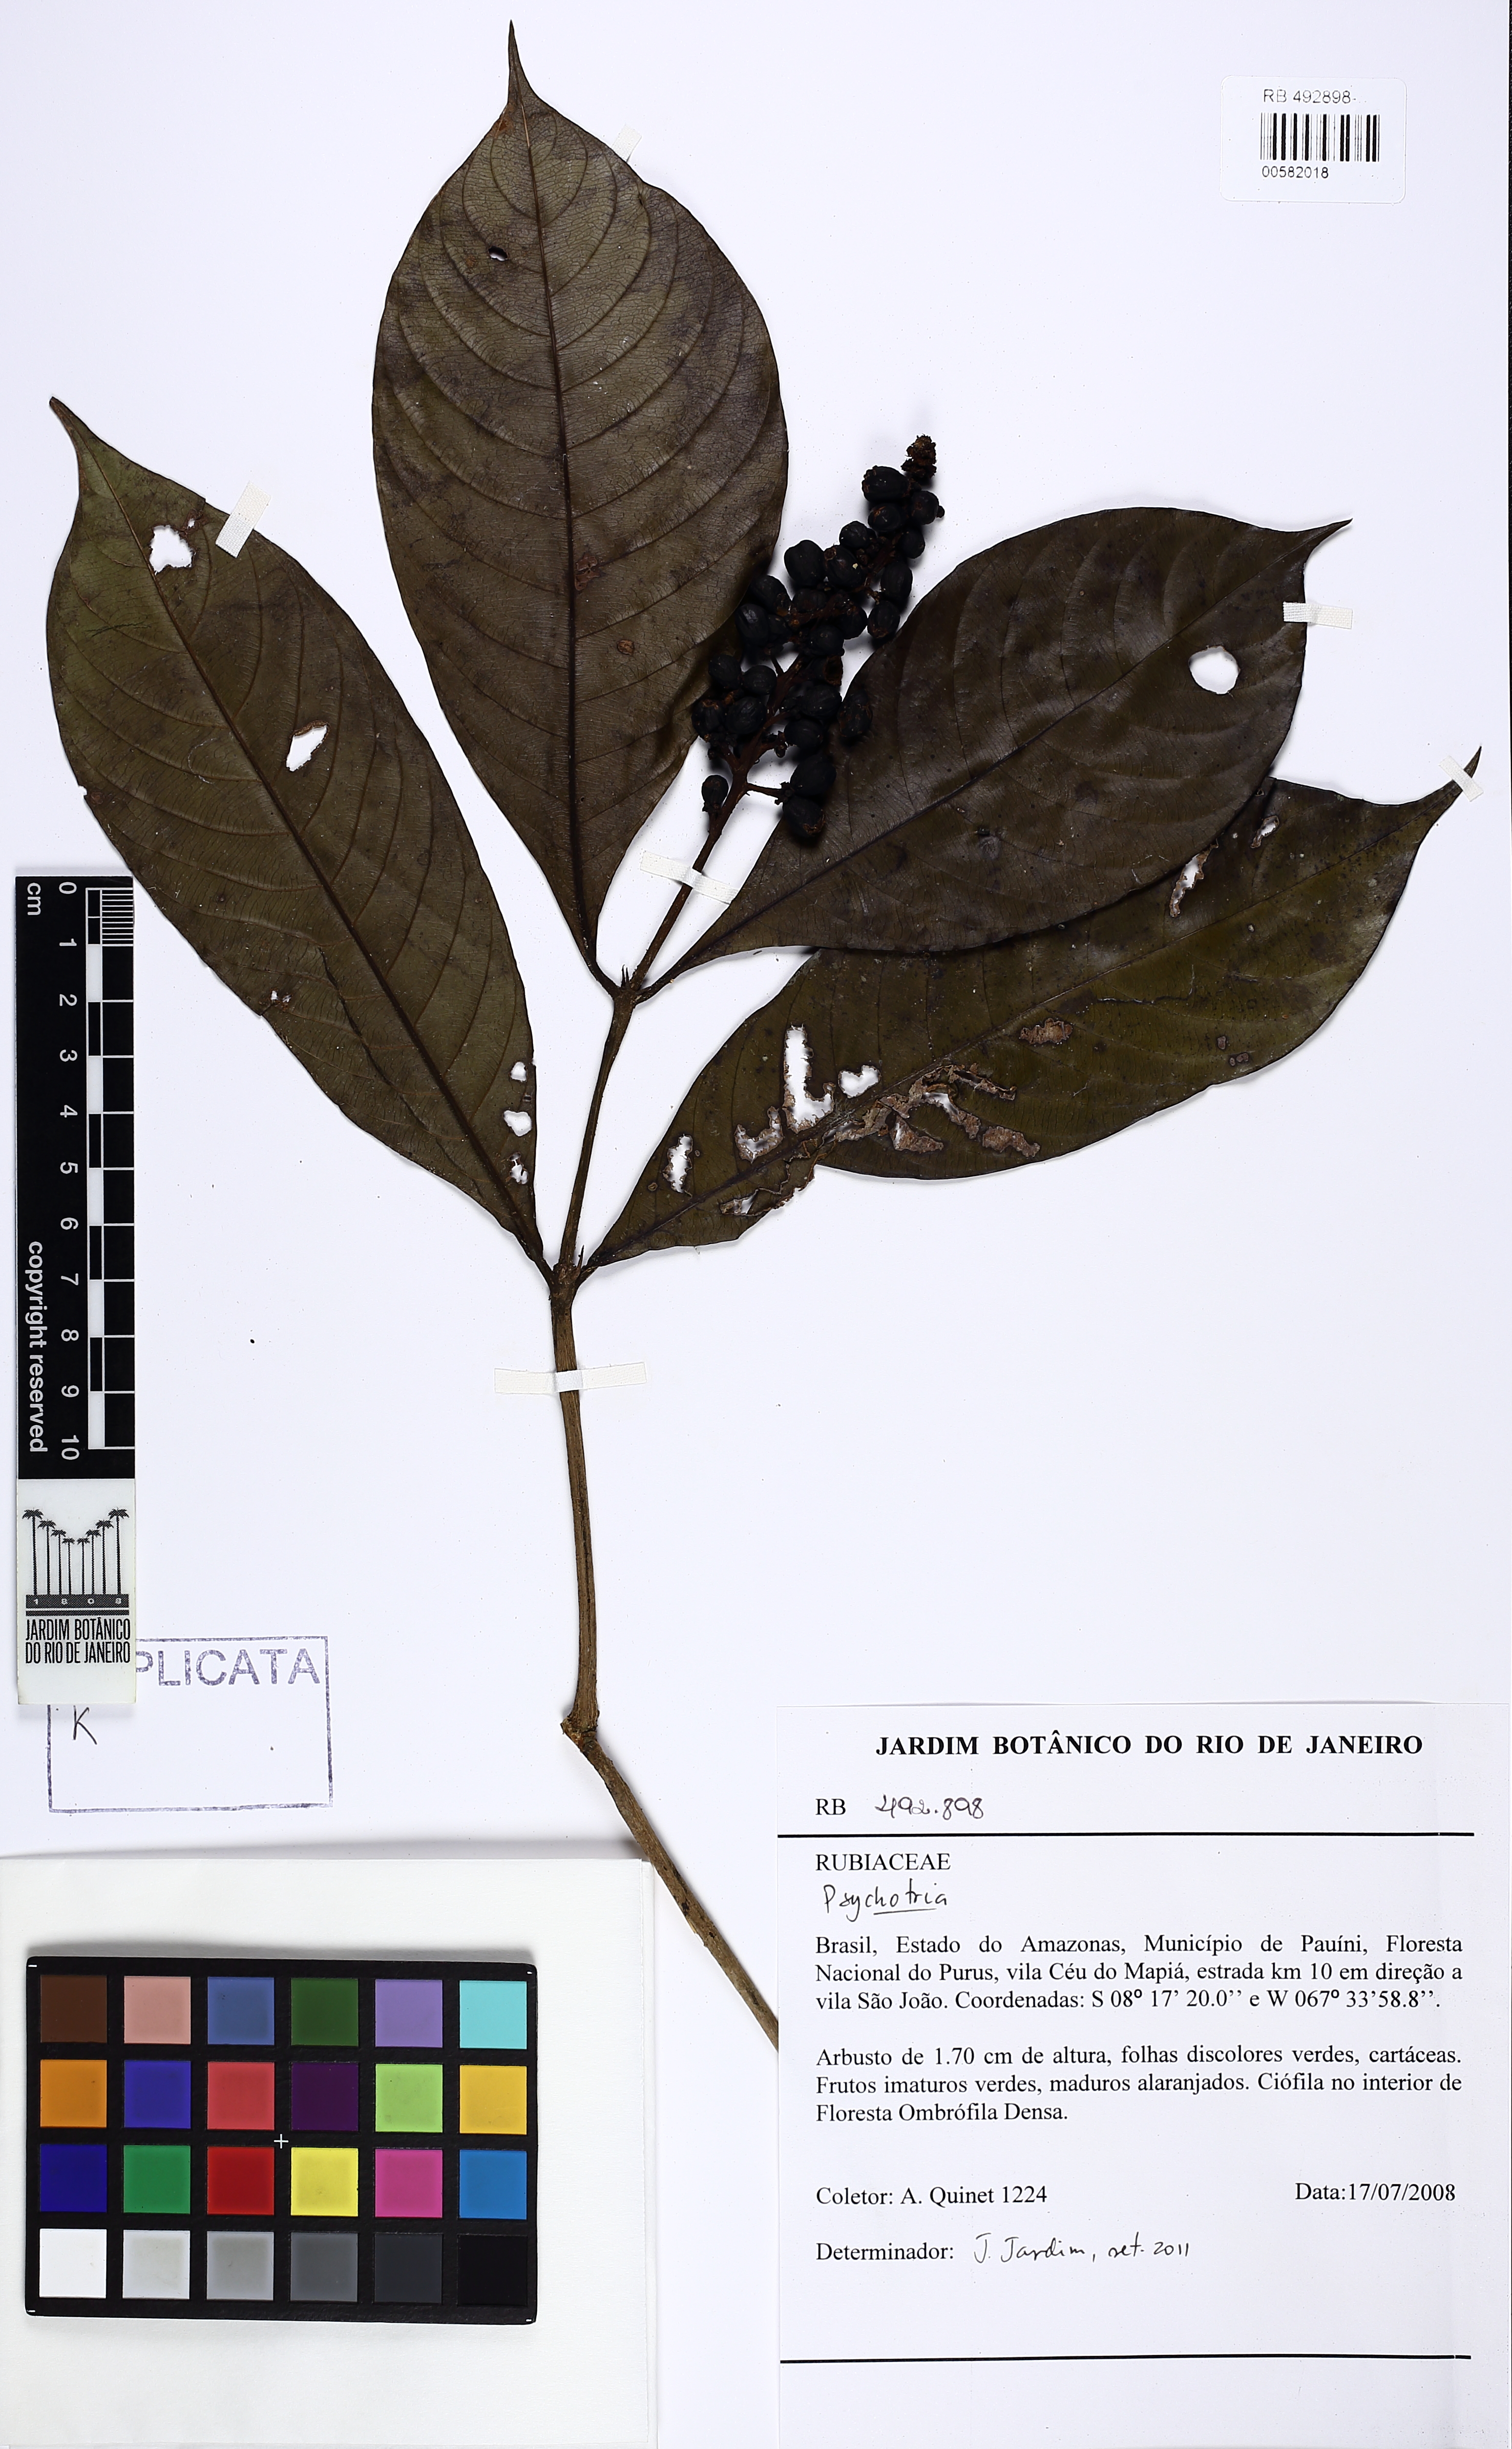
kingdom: Plantae
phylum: Tracheophyta
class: Magnoliopsida
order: Gentianales
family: Rubiaceae
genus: Carapichea
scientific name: Carapichea adinantha
